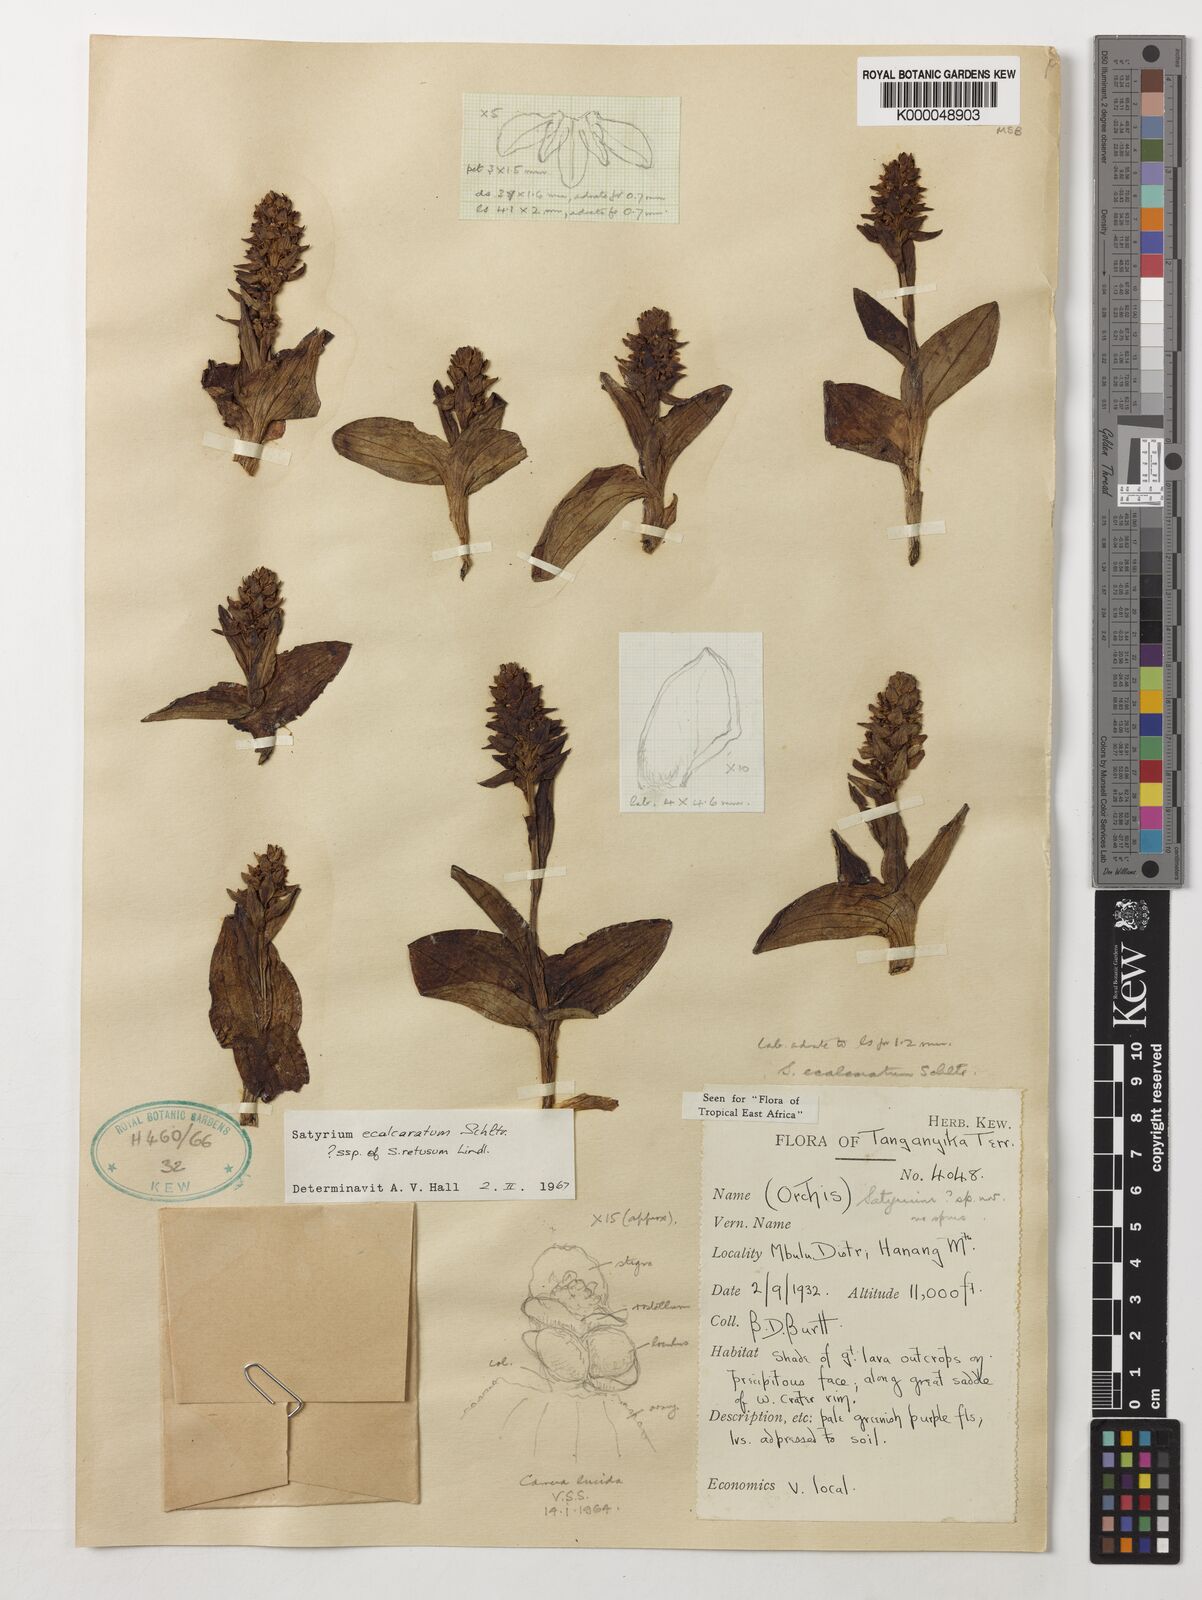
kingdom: Plantae
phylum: Tracheophyta
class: Liliopsida
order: Asparagales
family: Orchidaceae
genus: Satyrium
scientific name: Satyrium ecalcaratum
